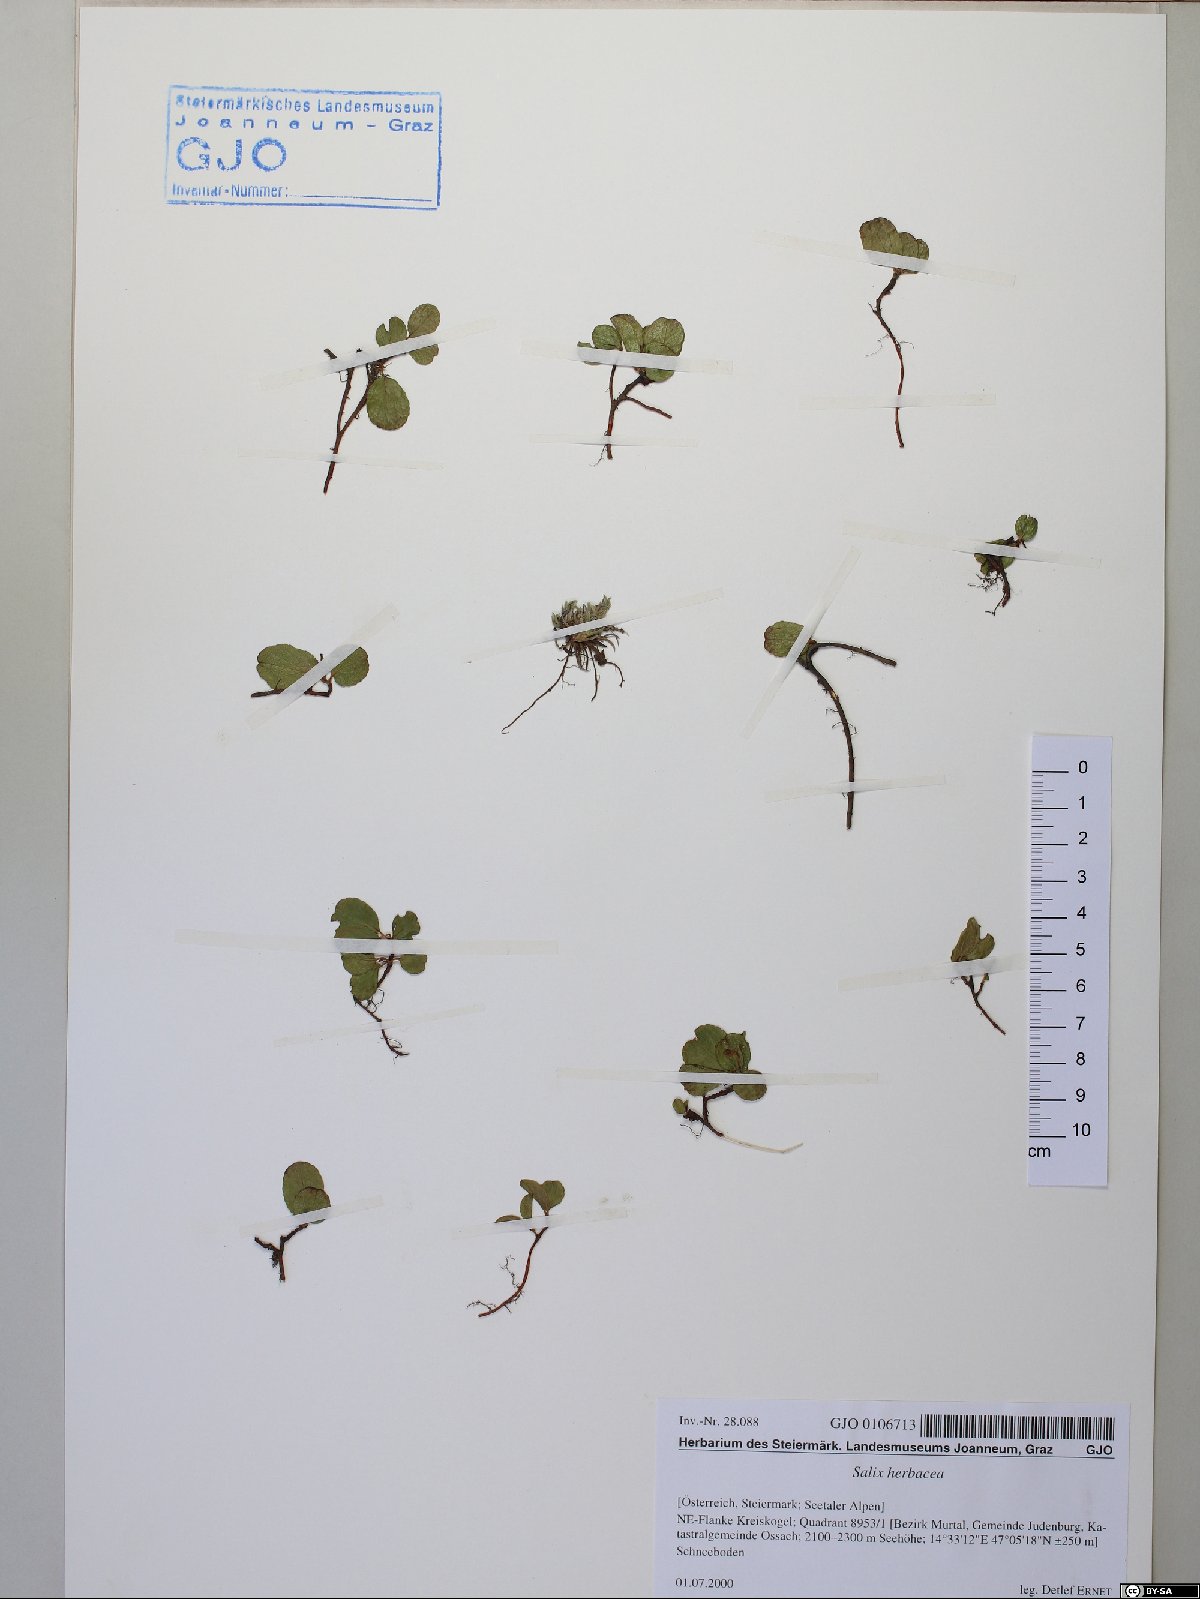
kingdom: Plantae
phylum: Tracheophyta
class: Magnoliopsida
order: Malpighiales
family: Salicaceae
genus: Salix
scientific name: Salix herbacea
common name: Dwarf willow
